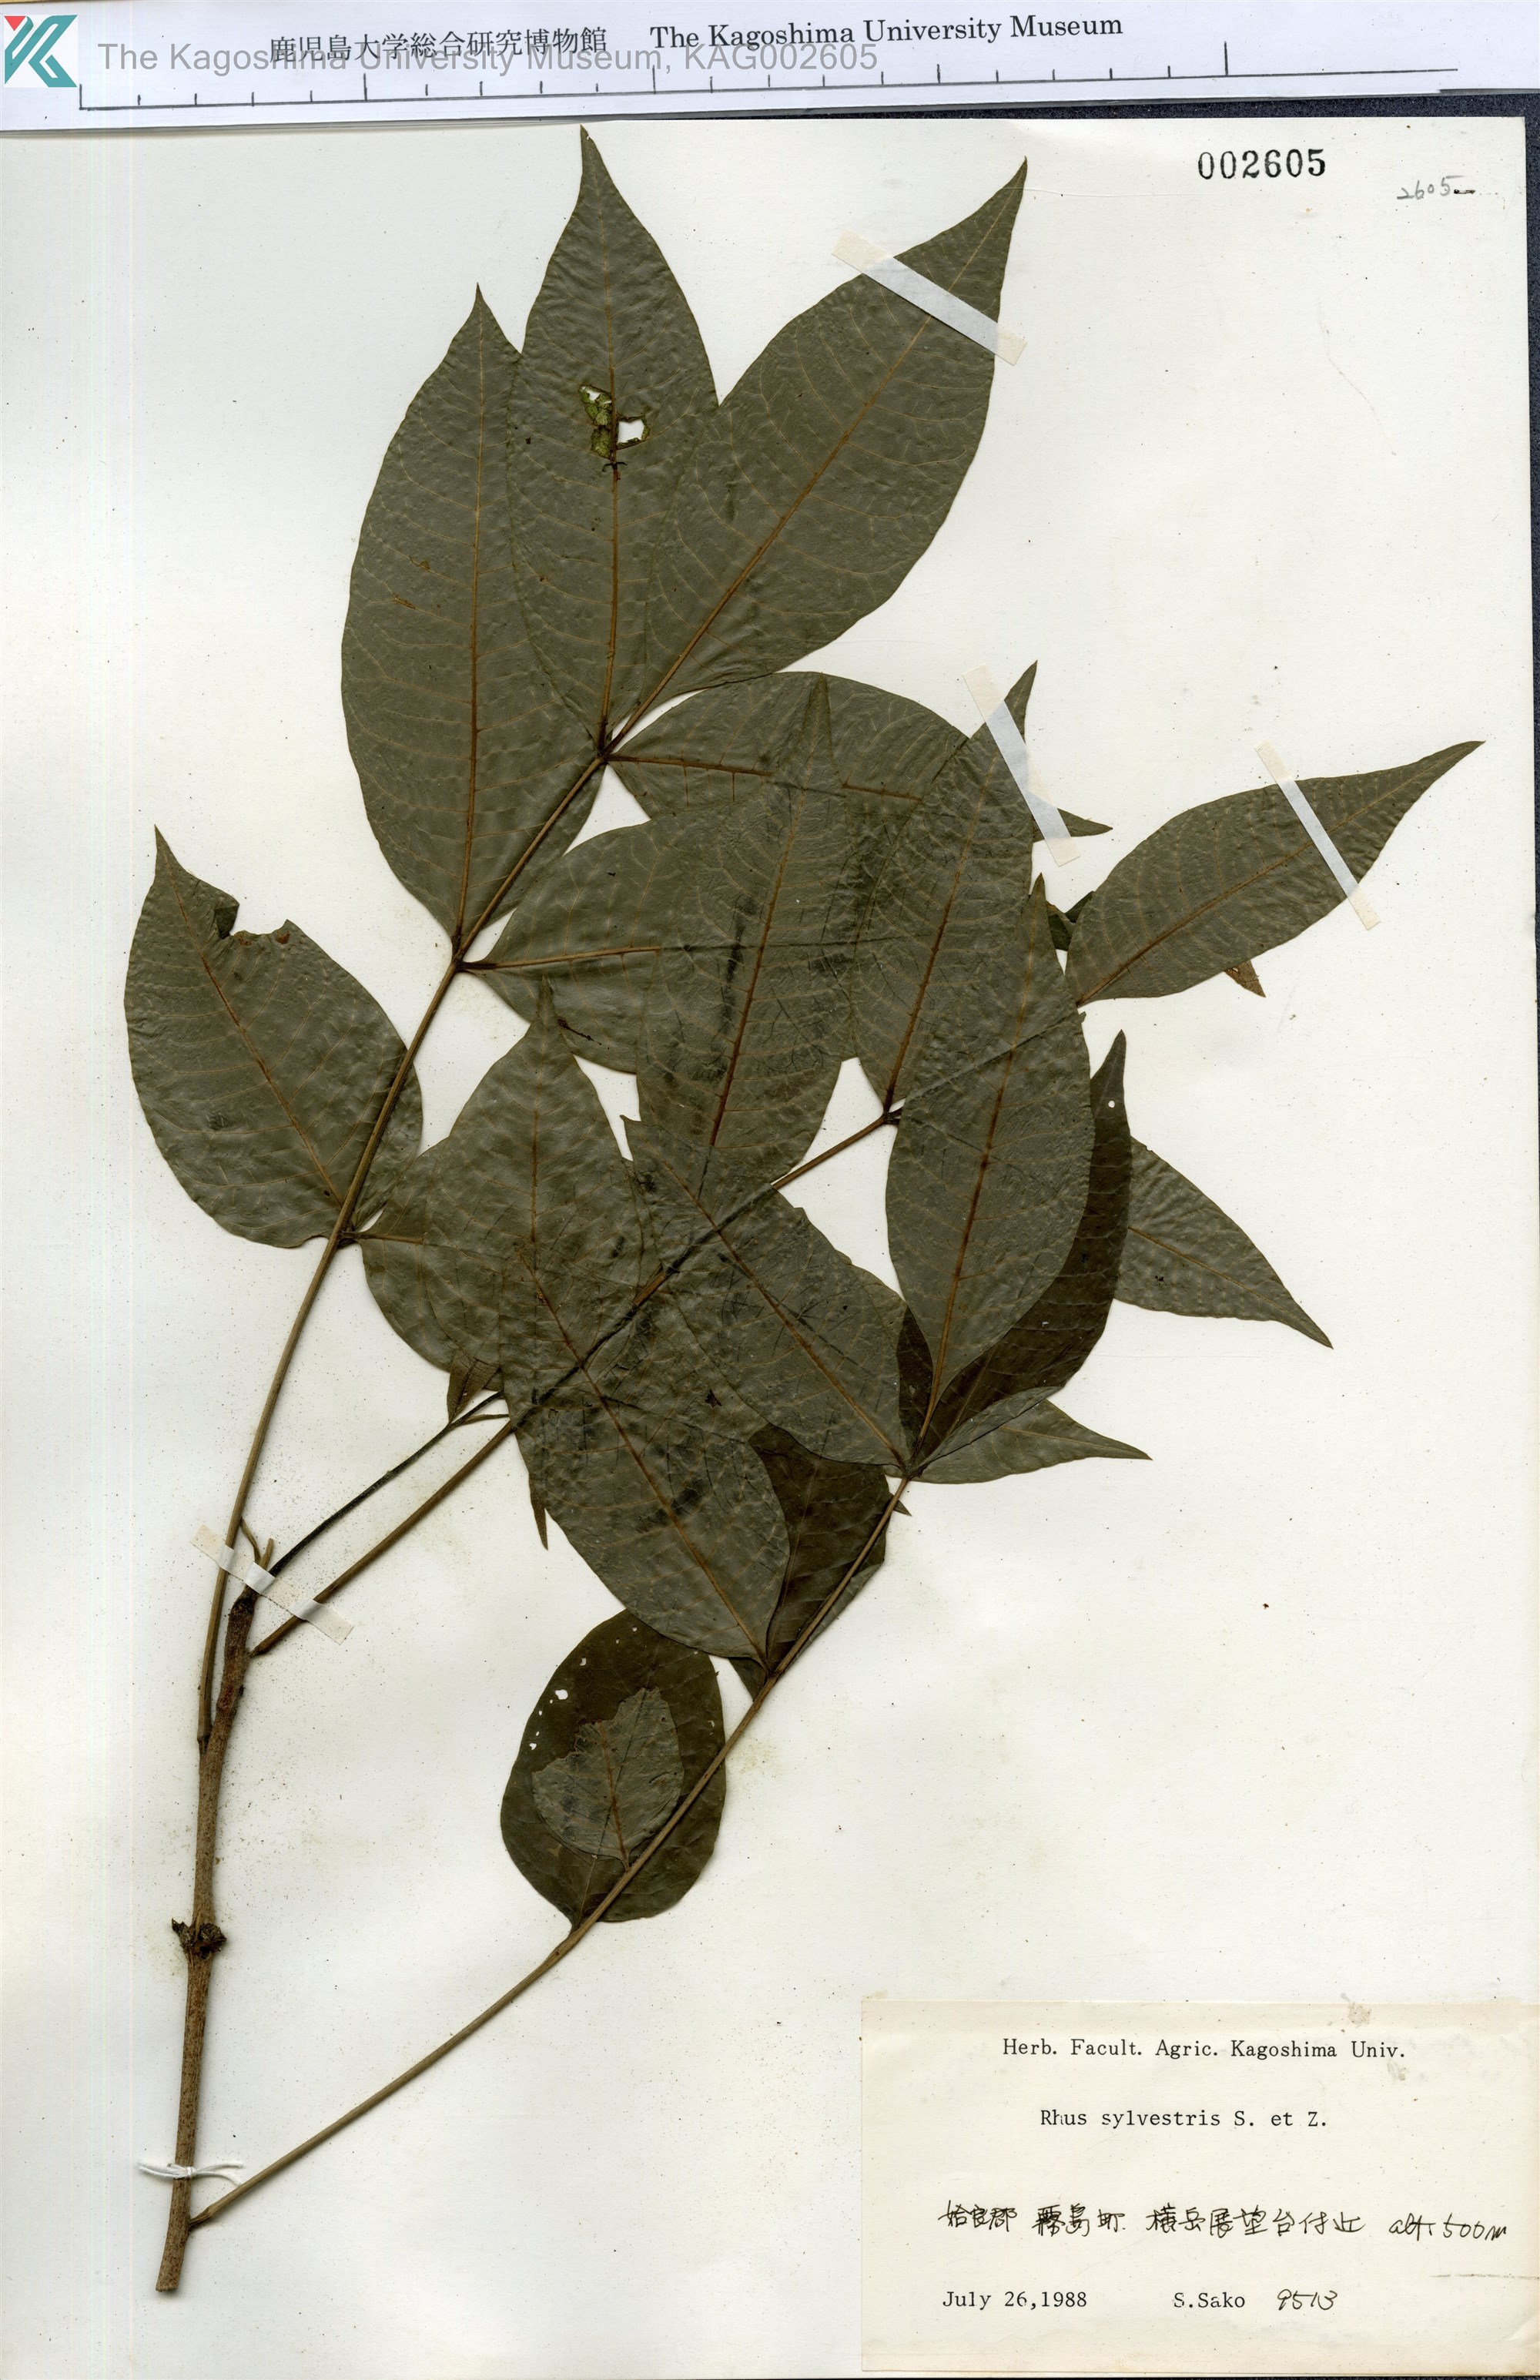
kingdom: Plantae
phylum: Tracheophyta
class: Magnoliopsida
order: Sapindales
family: Anacardiaceae
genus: Toxicodendron
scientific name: Toxicodendron sylvestre
